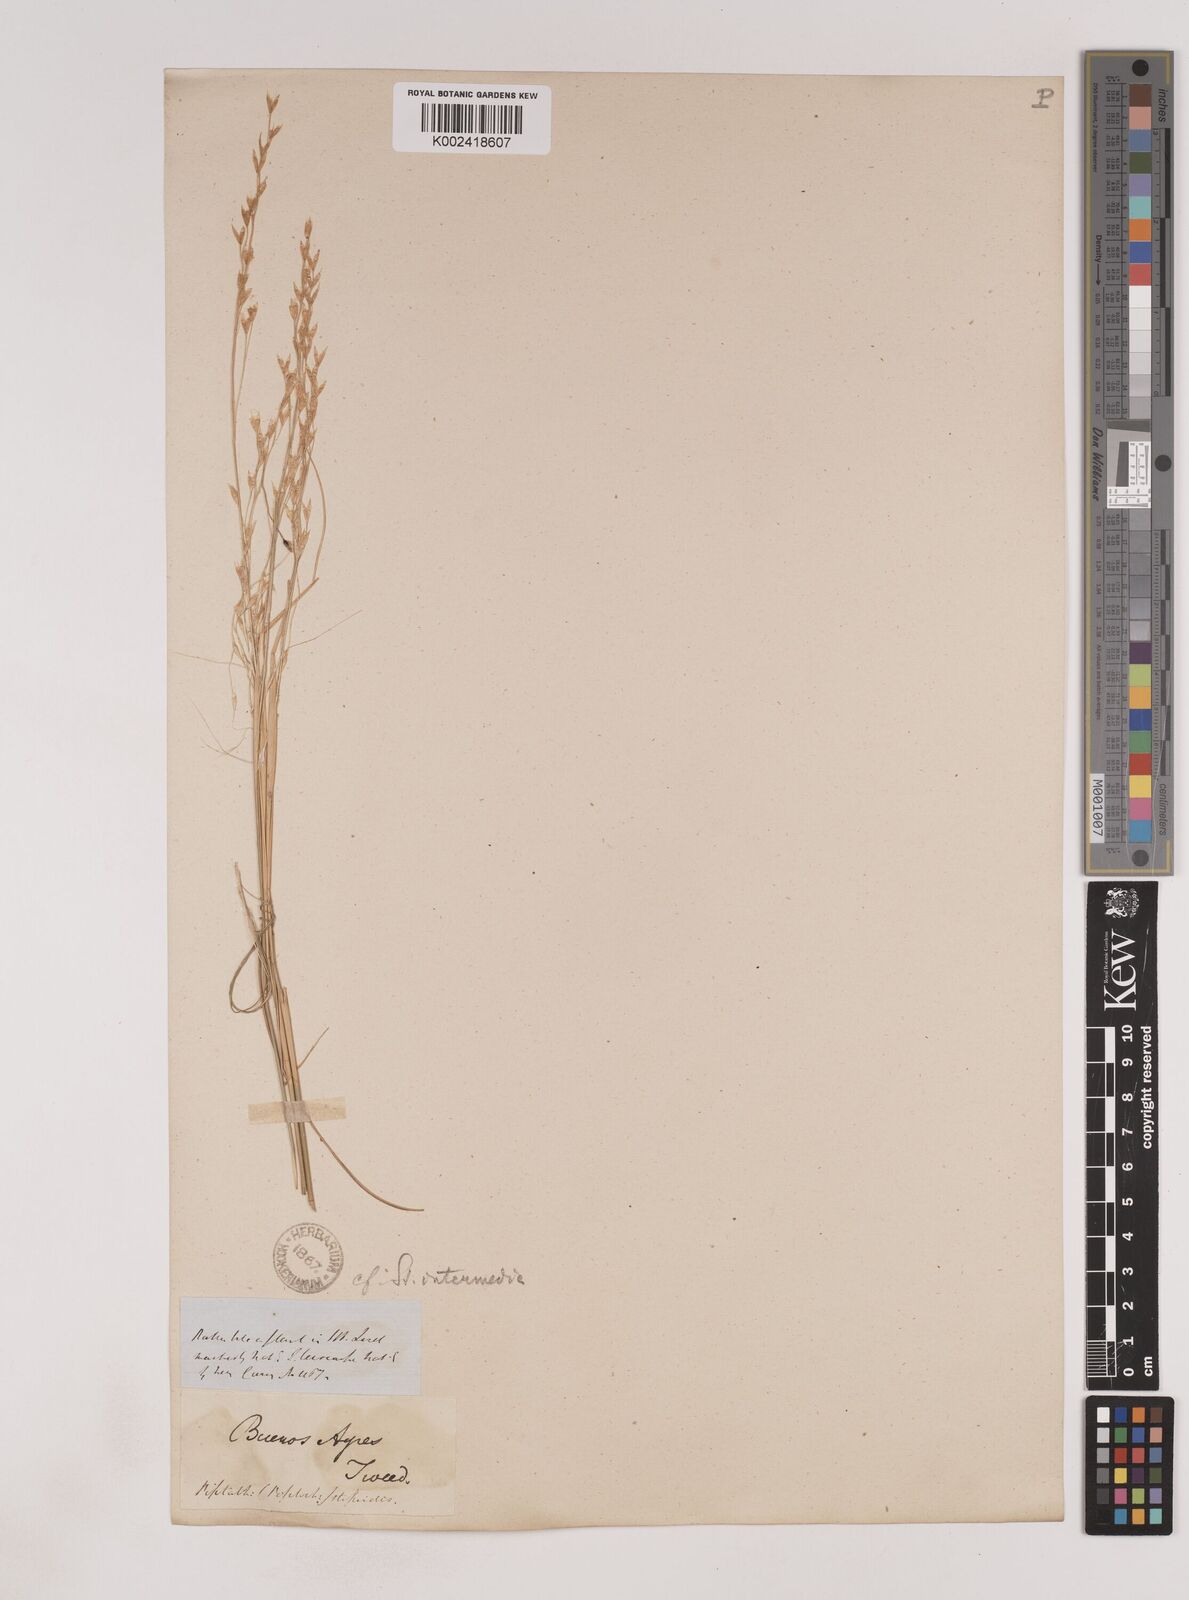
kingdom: Plantae
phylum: Tracheophyta
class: Liliopsida
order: Poales
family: Poaceae
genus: Piptochaetium
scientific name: Piptochaetium
